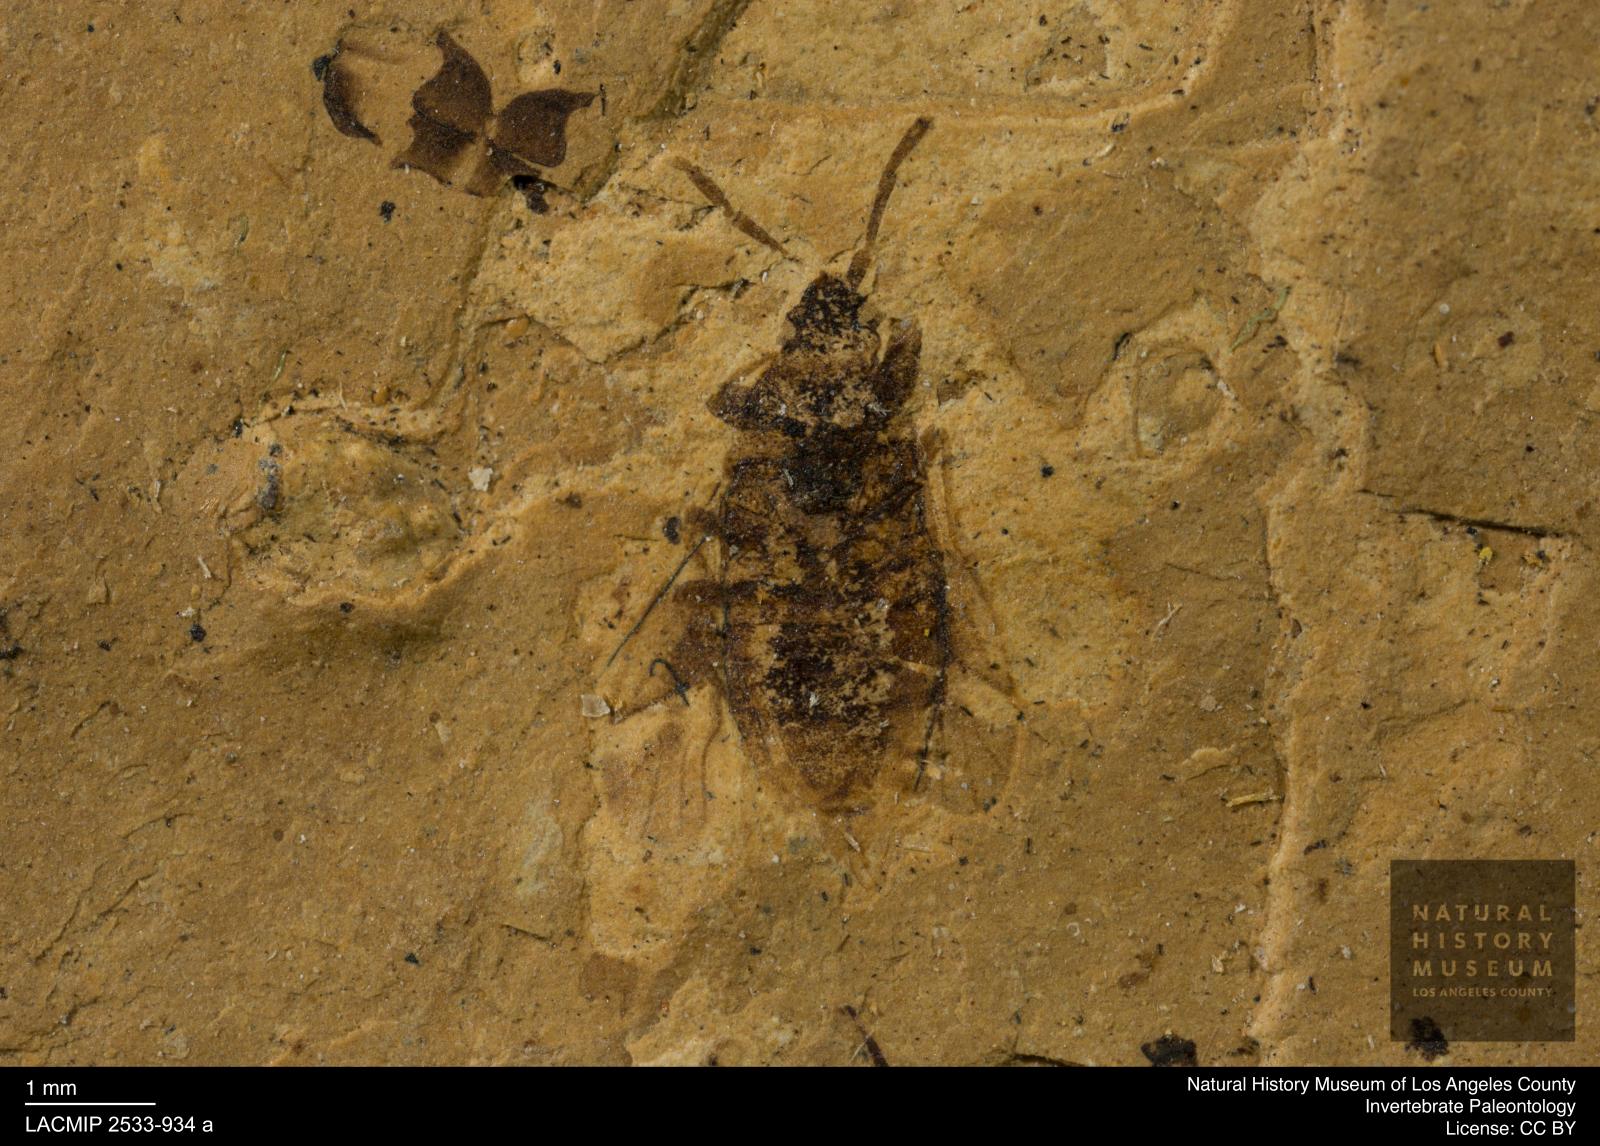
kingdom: Animalia
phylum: Arthropoda
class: Insecta
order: Hemiptera
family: Rhyparochromidae
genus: Trapezonotus
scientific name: Trapezonotus riguus
